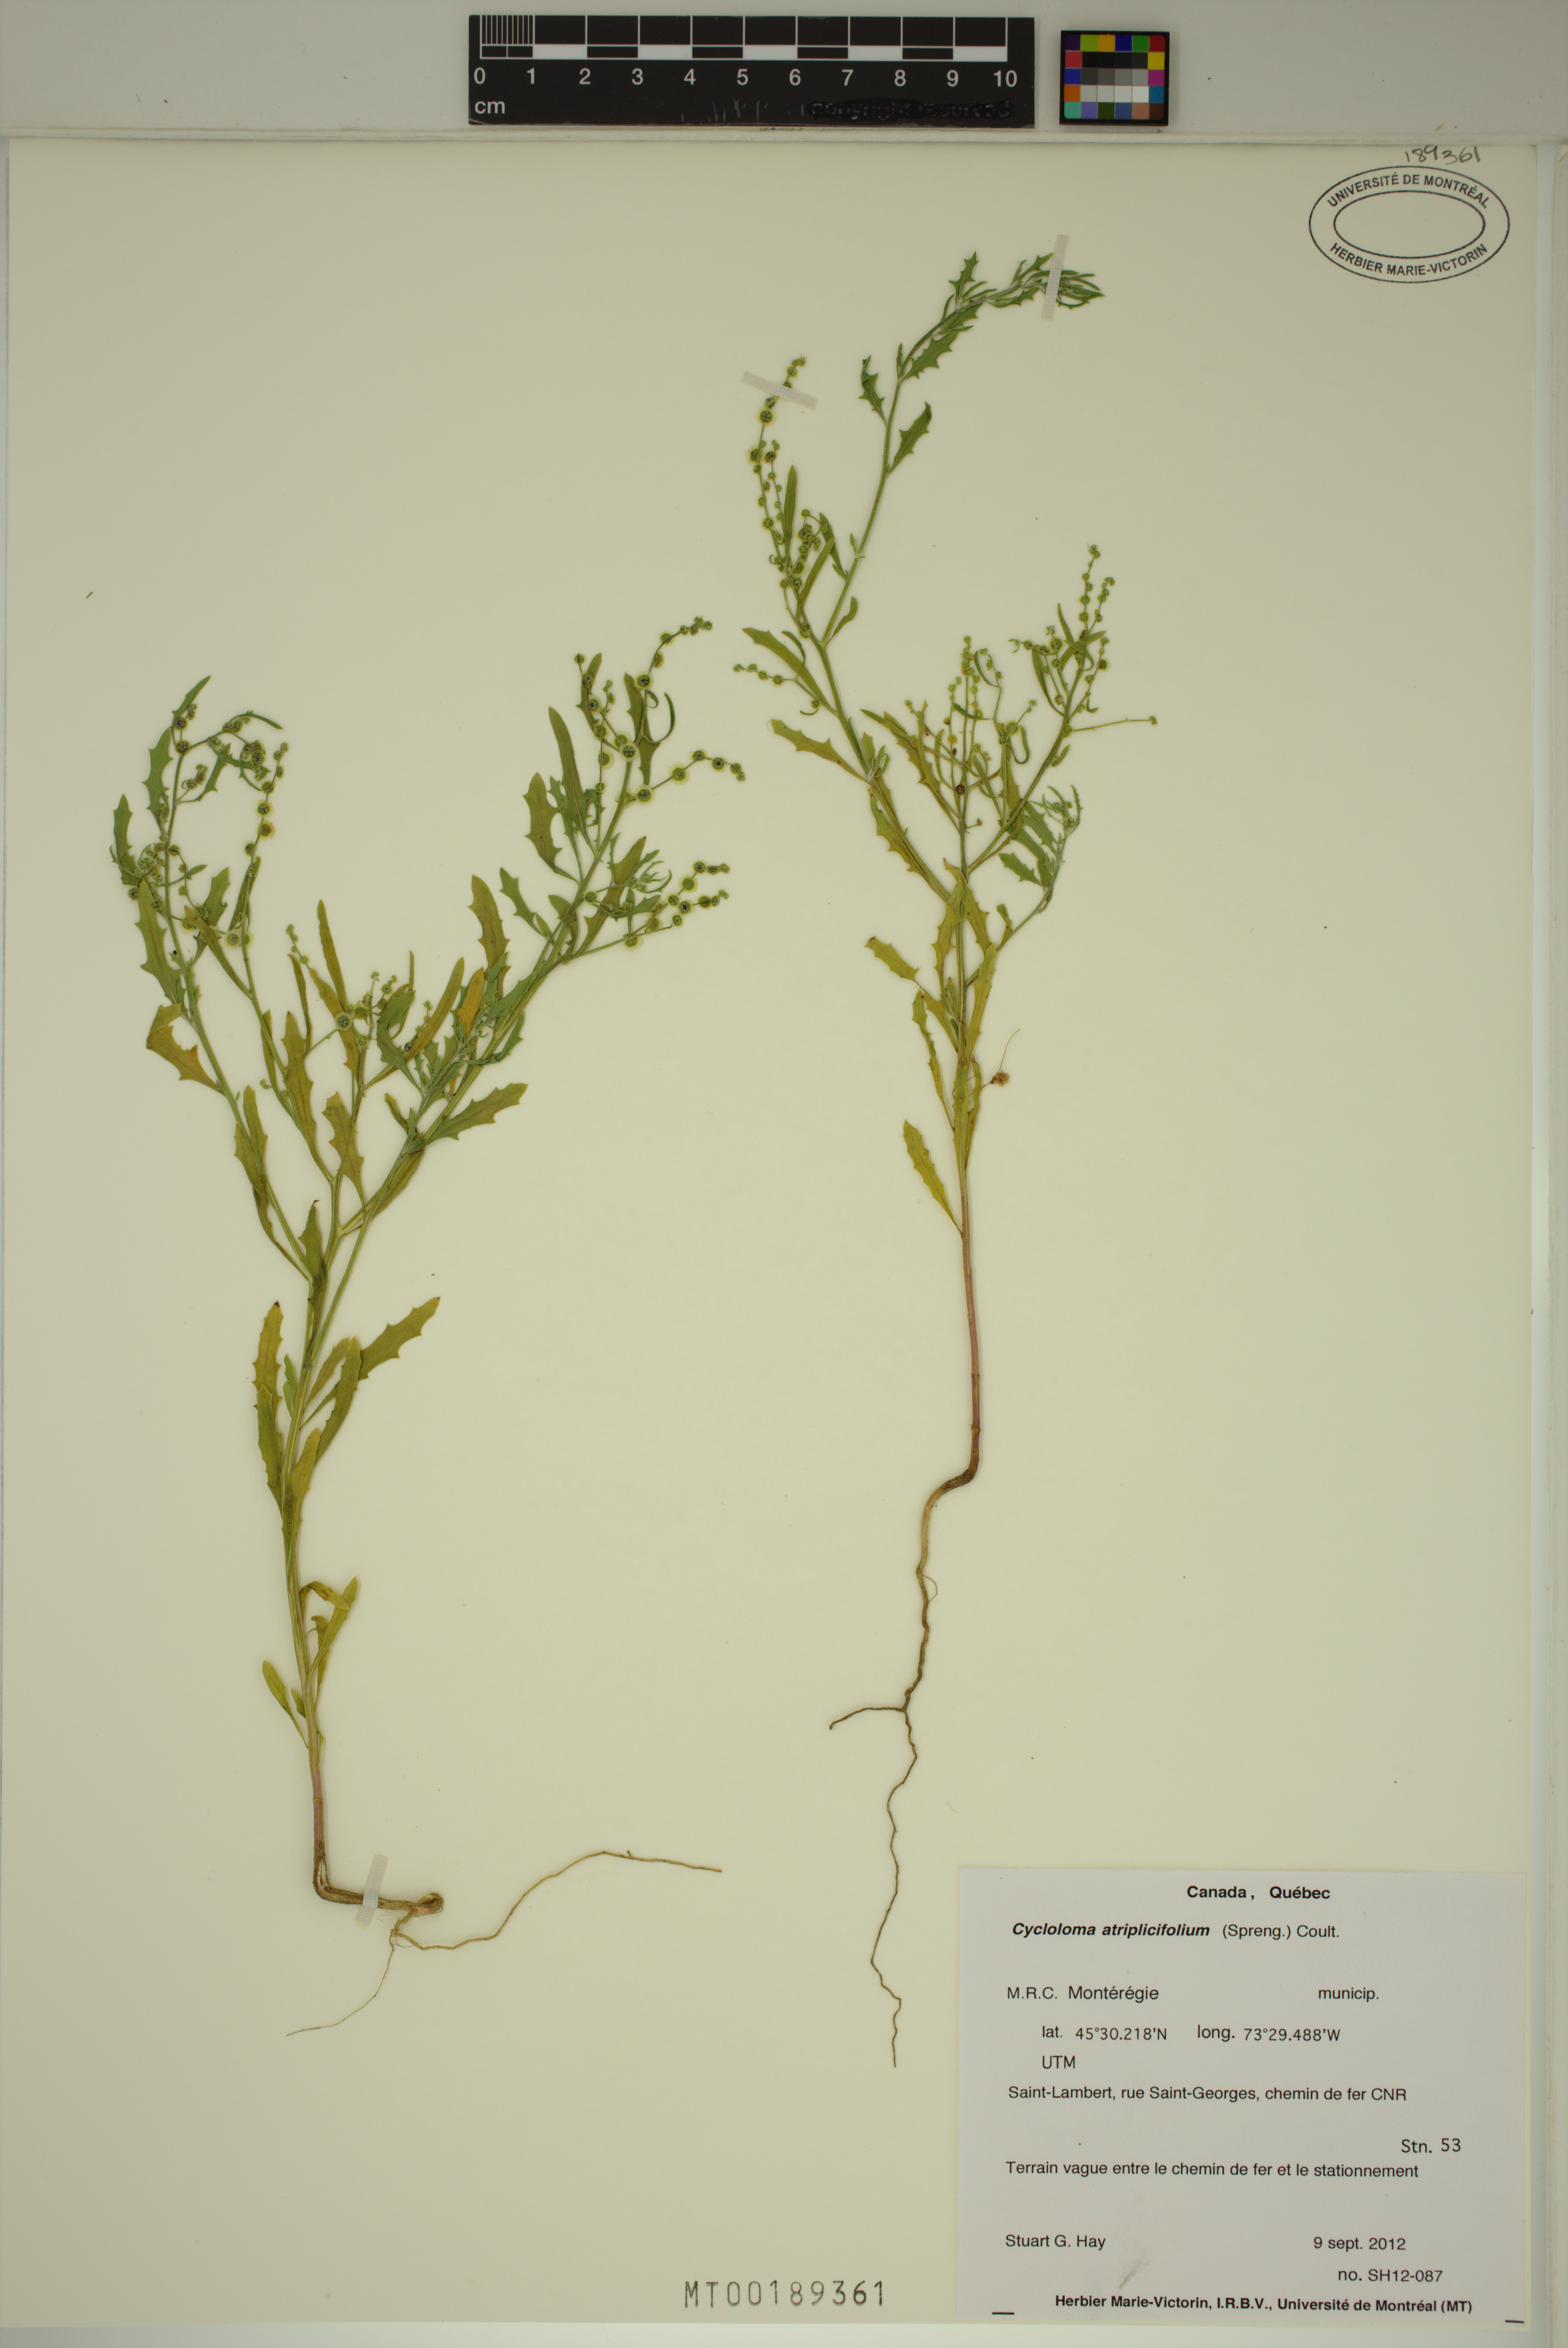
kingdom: Plantae
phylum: Tracheophyta
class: Magnoliopsida
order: Caryophyllales
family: Amaranthaceae
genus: Dysphania
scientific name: Dysphania atriplicifolia
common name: Plains tumbleweed
